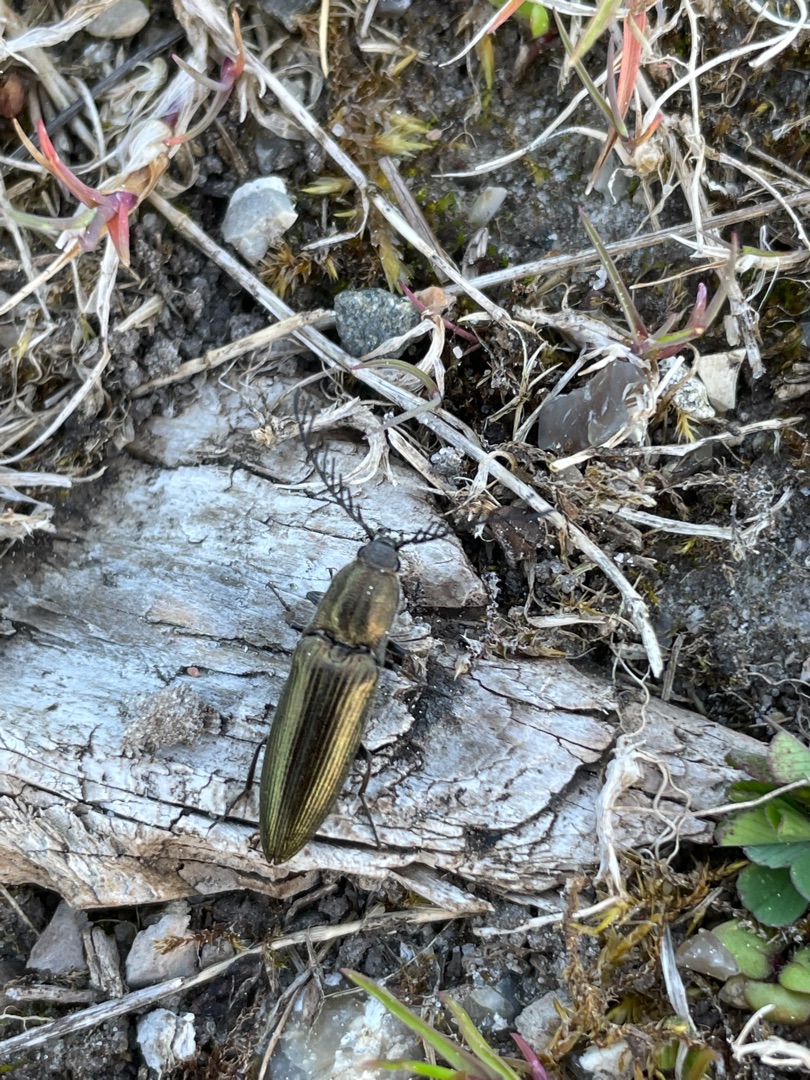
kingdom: Animalia
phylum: Arthropoda
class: Insecta
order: Coleoptera
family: Elateridae
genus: Ctenicera
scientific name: Ctenicera pectinicornis
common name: Kamhornet smælder
